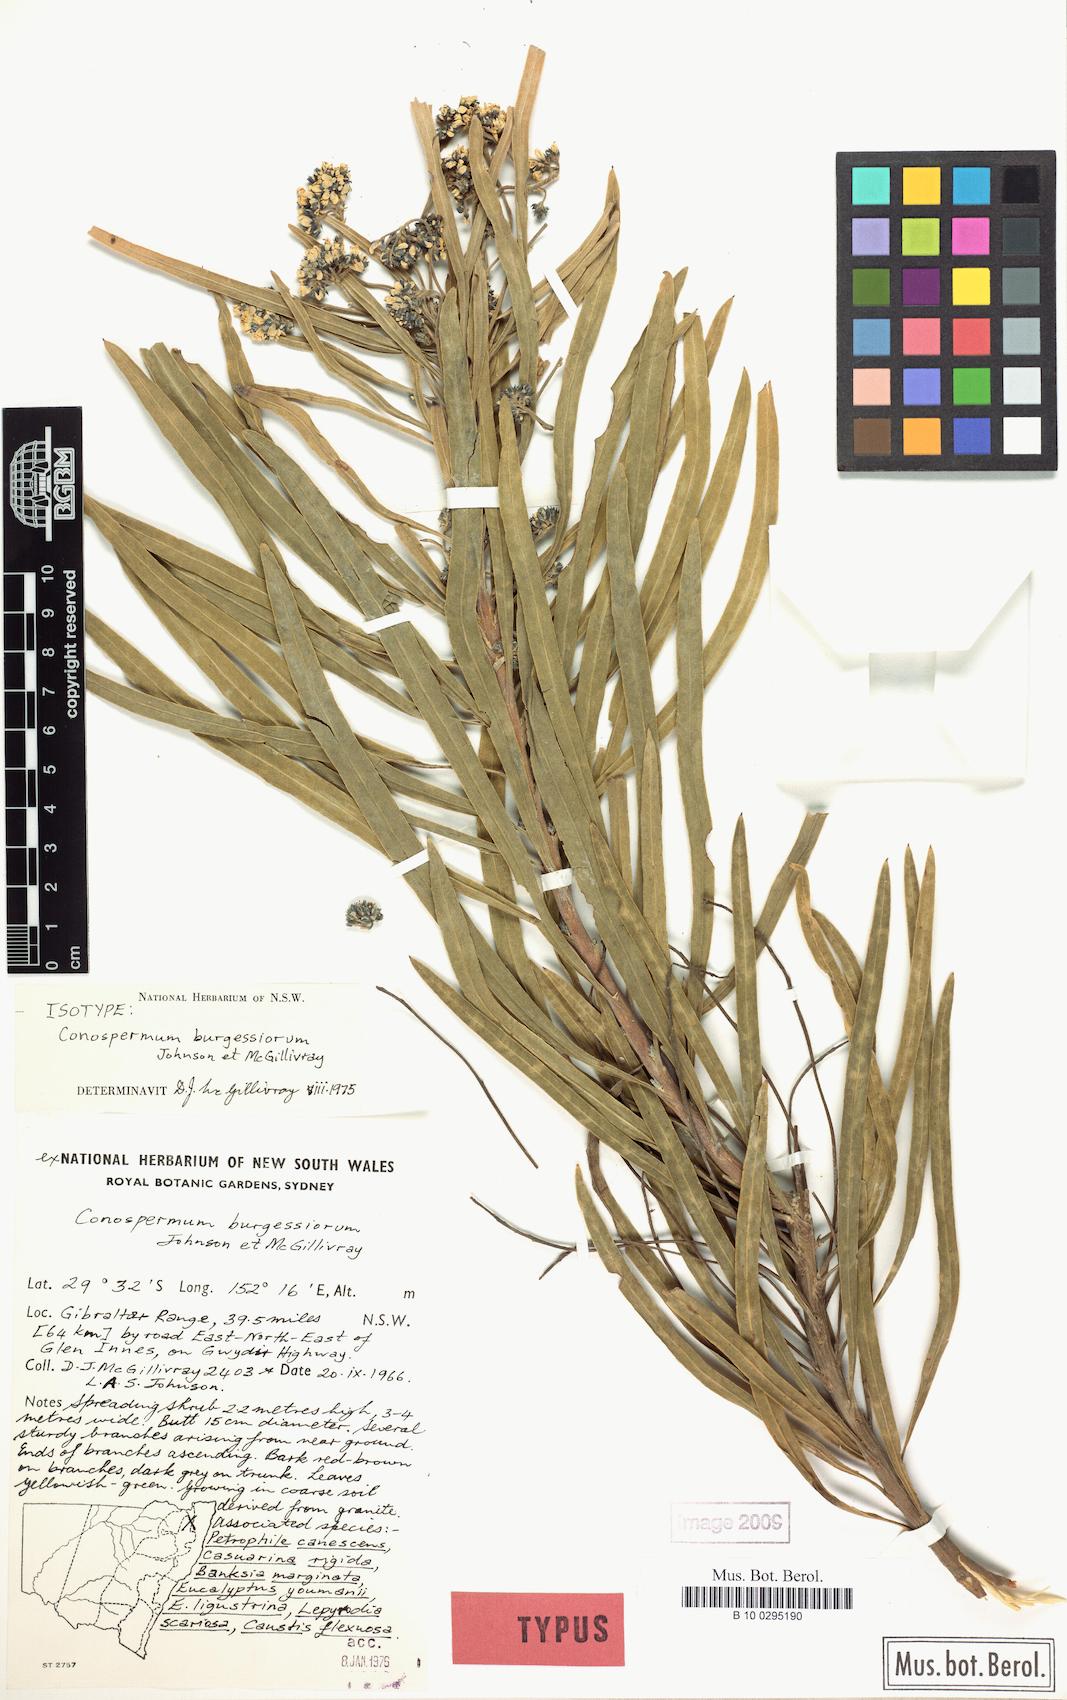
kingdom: Plantae
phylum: Tracheophyta
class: Magnoliopsida
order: Proteales
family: Proteaceae
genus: Conospermum
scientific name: Conospermum burgessiorum
